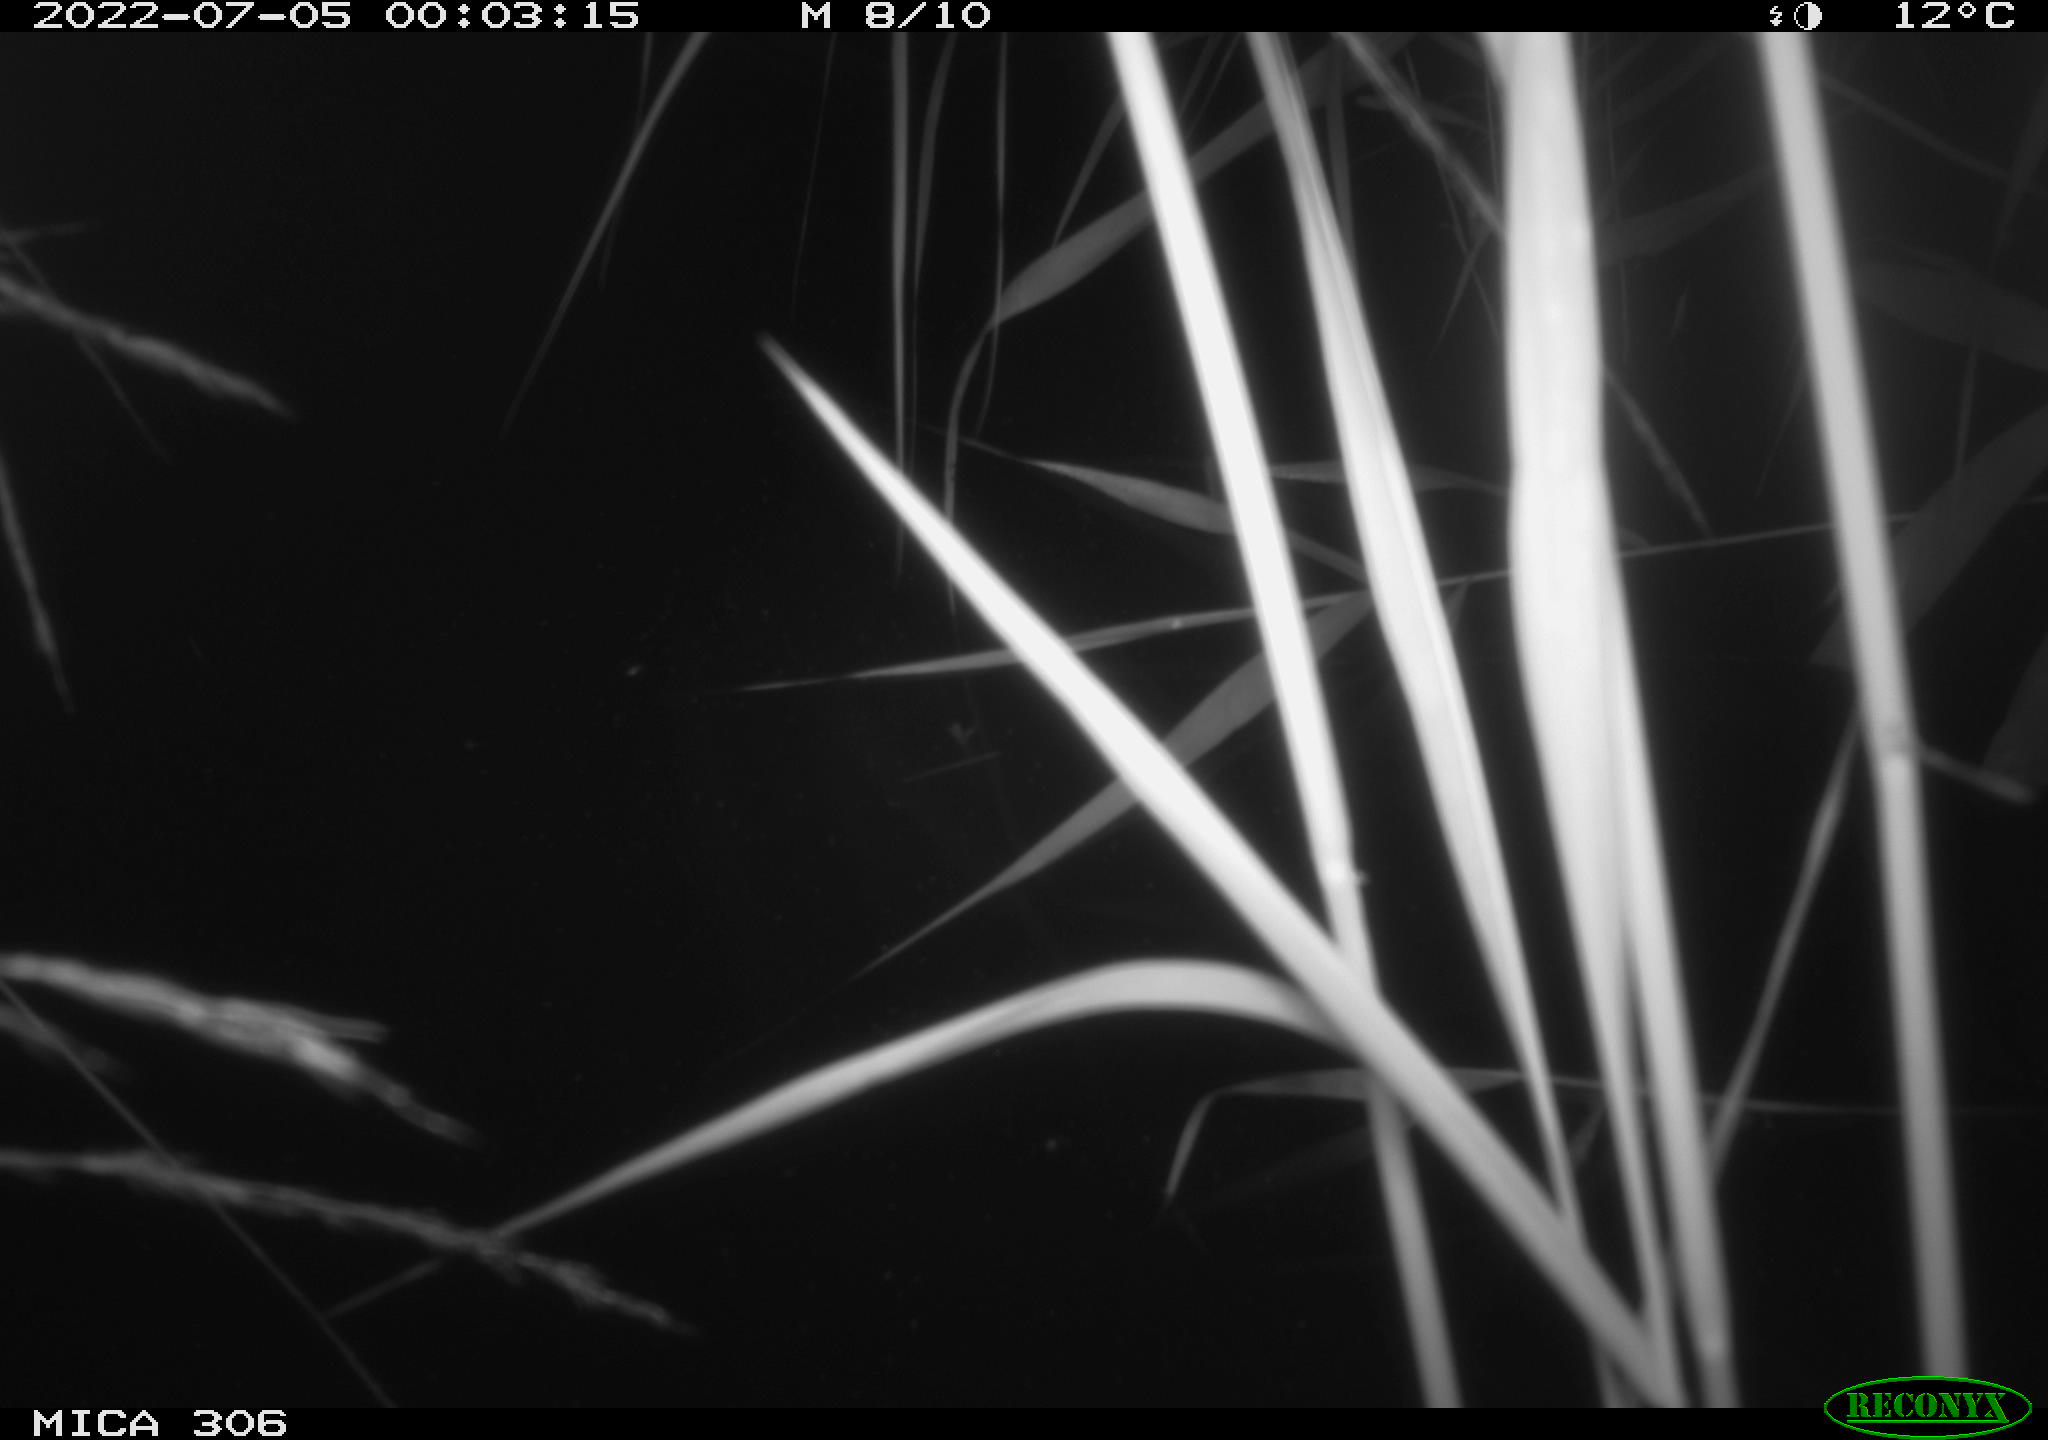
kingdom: Animalia
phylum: Chordata
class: Mammalia
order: Rodentia
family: Cricetidae
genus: Ondatra
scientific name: Ondatra zibethicus
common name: Muskrat
